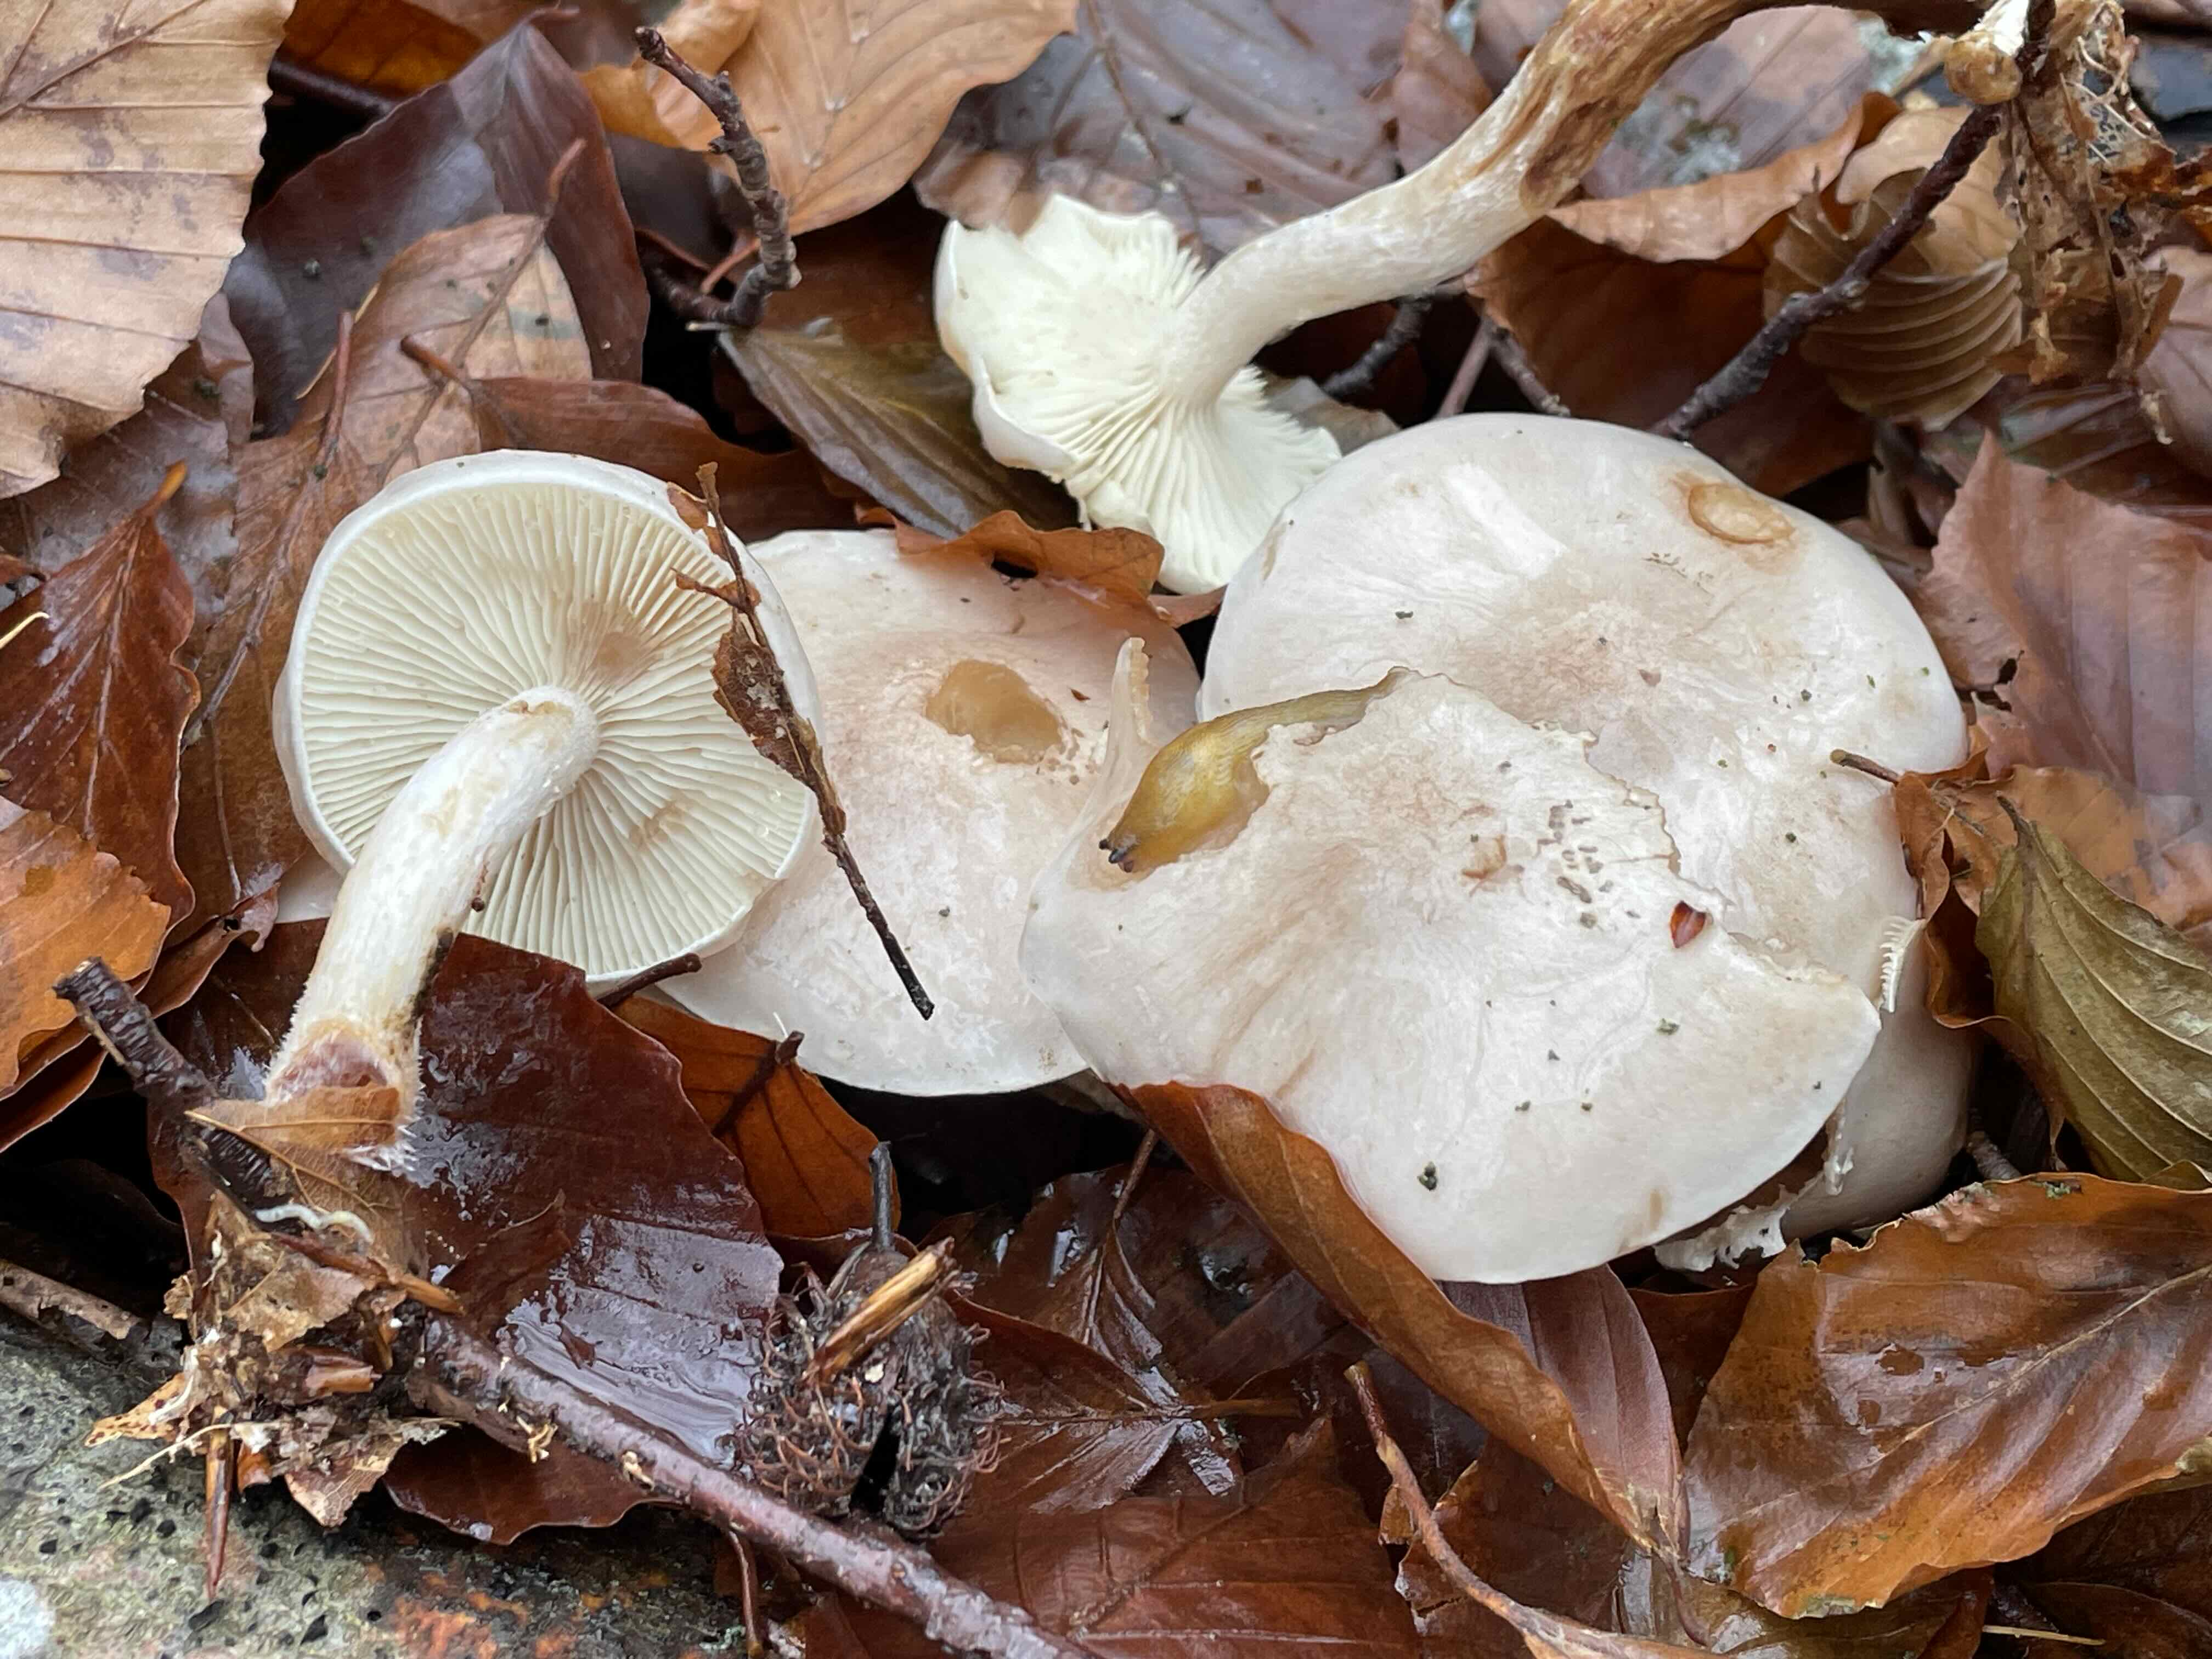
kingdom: Fungi
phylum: Basidiomycota
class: Agaricomycetes
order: Agaricales
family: Strophariaceae
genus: Pholiota
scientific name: Pholiota lenta
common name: løv-skælhat
